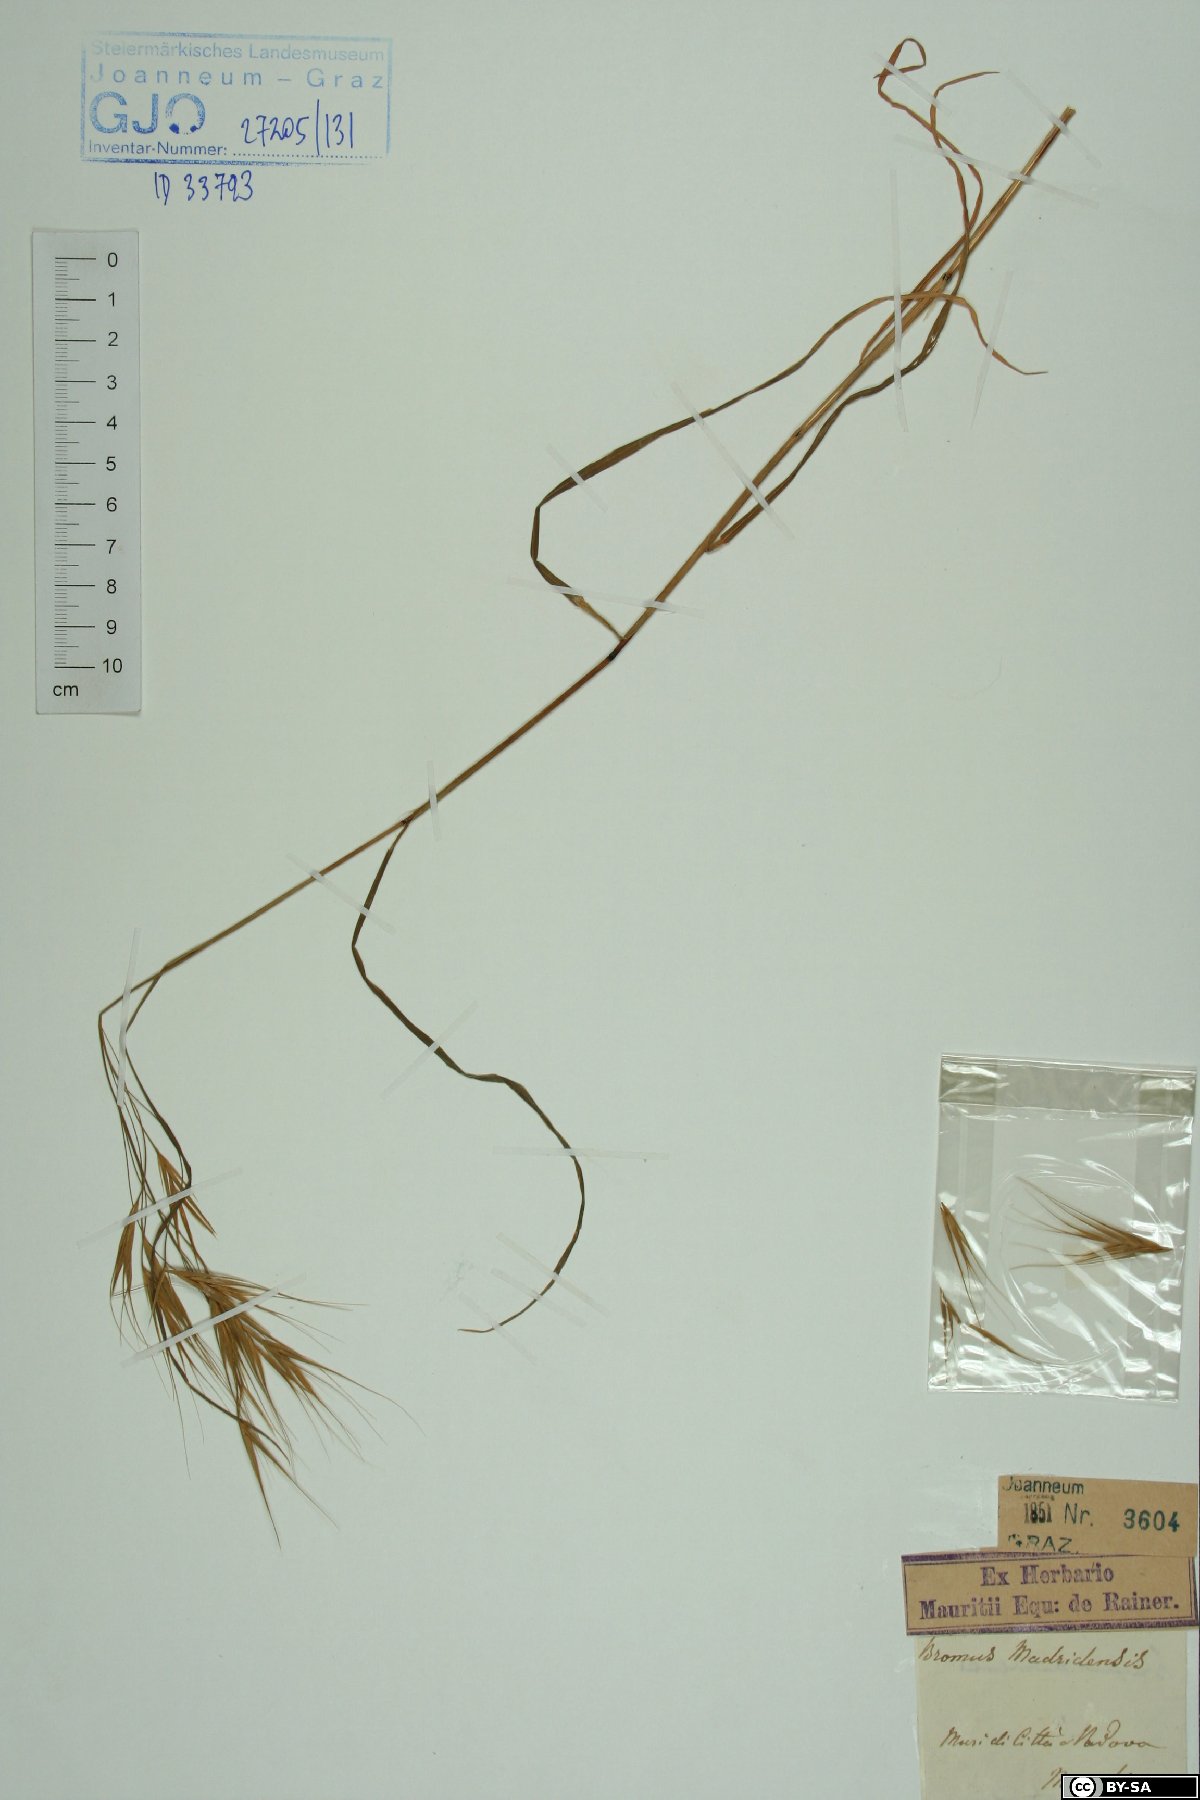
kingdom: Plantae
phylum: Tracheophyta
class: Liliopsida
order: Poales
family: Poaceae
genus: Bromus
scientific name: Bromus madritensis
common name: Compact brome
